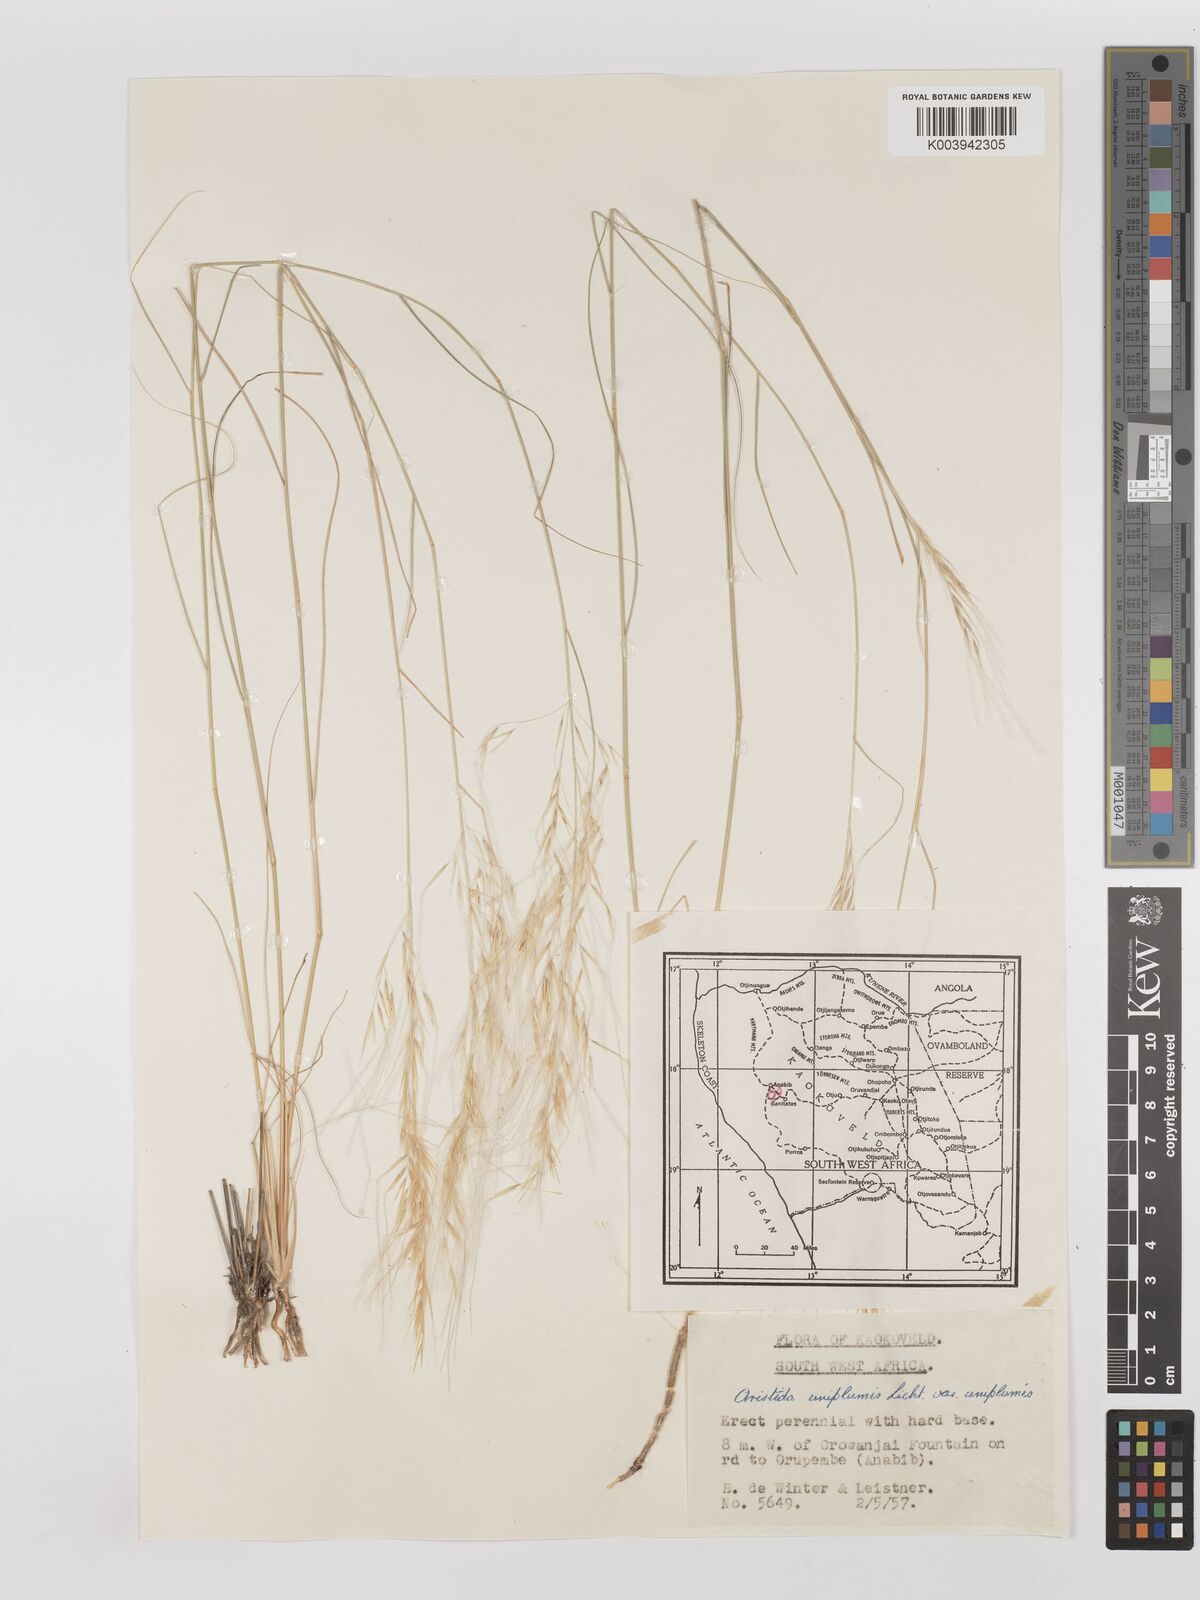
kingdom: Plantae
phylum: Tracheophyta
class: Liliopsida
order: Poales
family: Poaceae
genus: Stipagrostis
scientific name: Stipagrostis uniplumis
